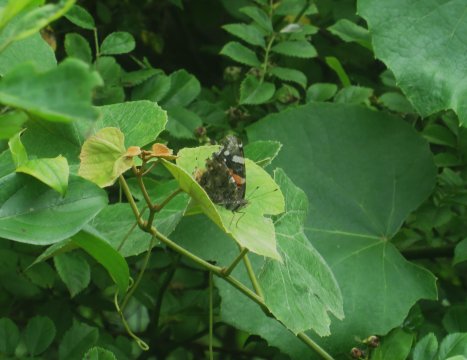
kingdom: Animalia
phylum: Arthropoda
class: Insecta
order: Lepidoptera
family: Nymphalidae
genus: Vanessa
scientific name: Vanessa atalanta
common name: Red Admiral
